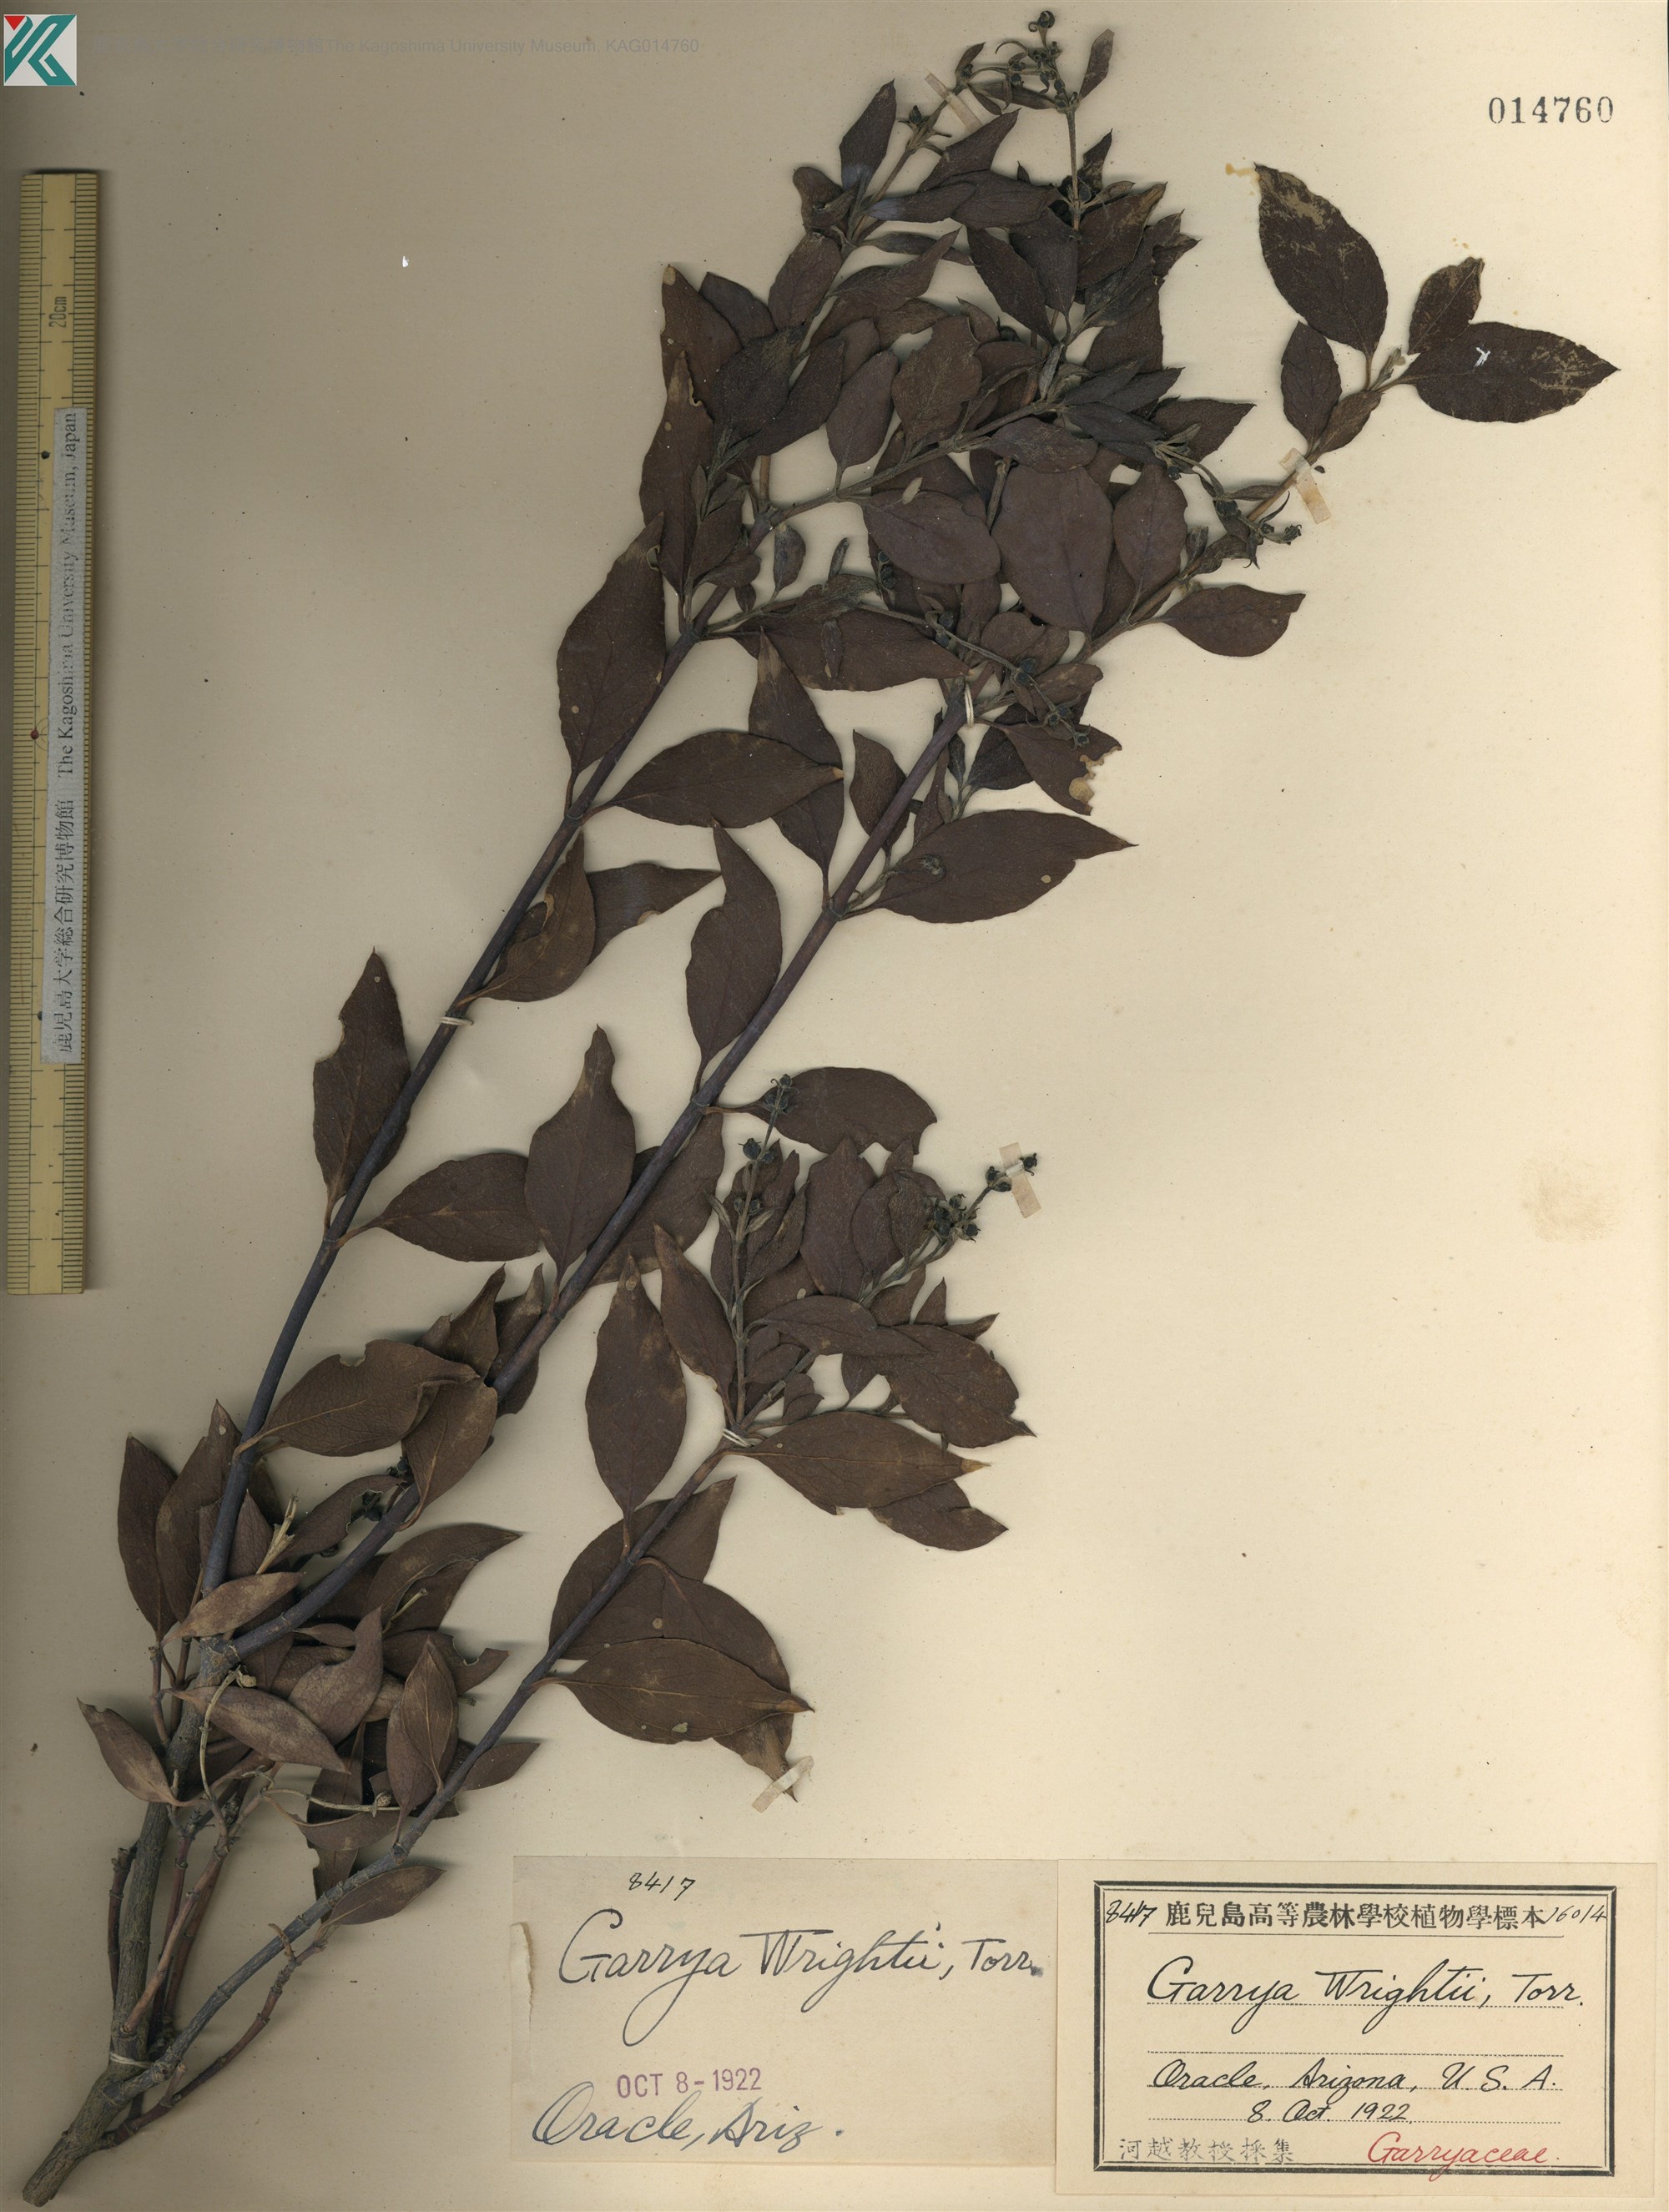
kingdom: Plantae
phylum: Tracheophyta
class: Magnoliopsida
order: Gentianales
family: Gentianaceae
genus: Canscora
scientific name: Canscora diffusa
